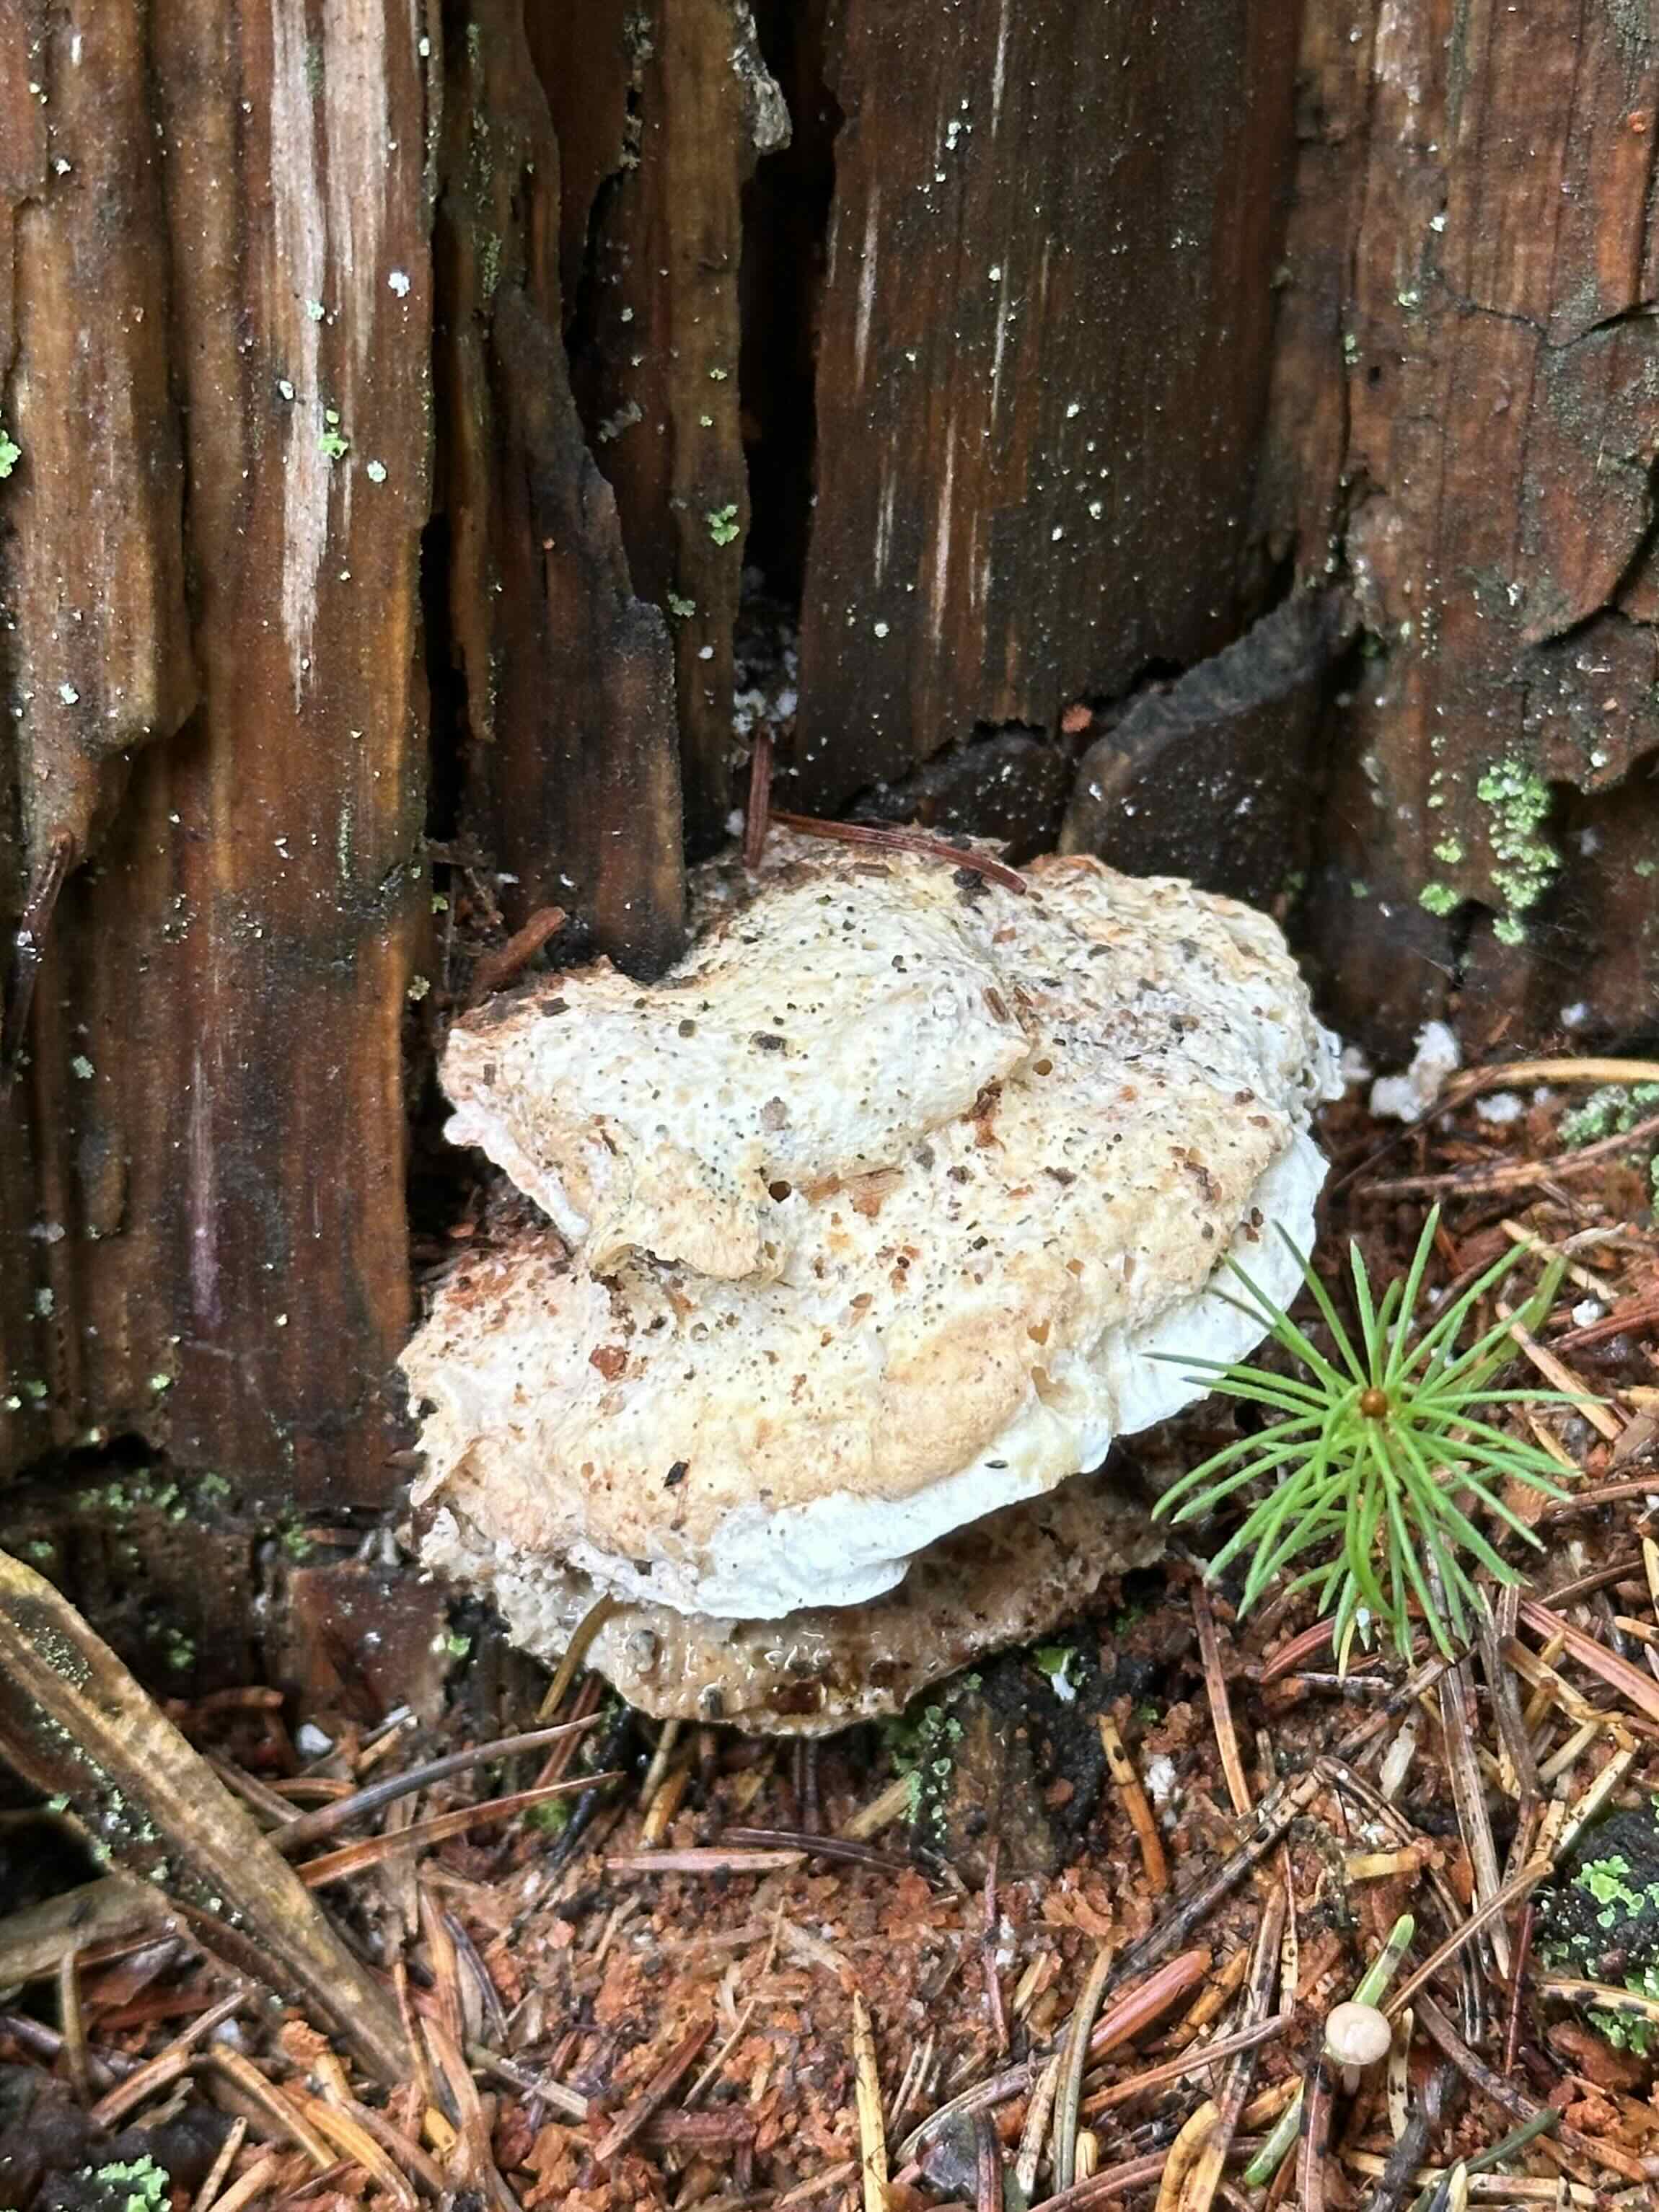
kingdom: Fungi
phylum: Basidiomycota
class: Agaricomycetes
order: Polyporales
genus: Calcipostia
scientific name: Calcipostia guttulata
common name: dråbe-kødporesvamp
